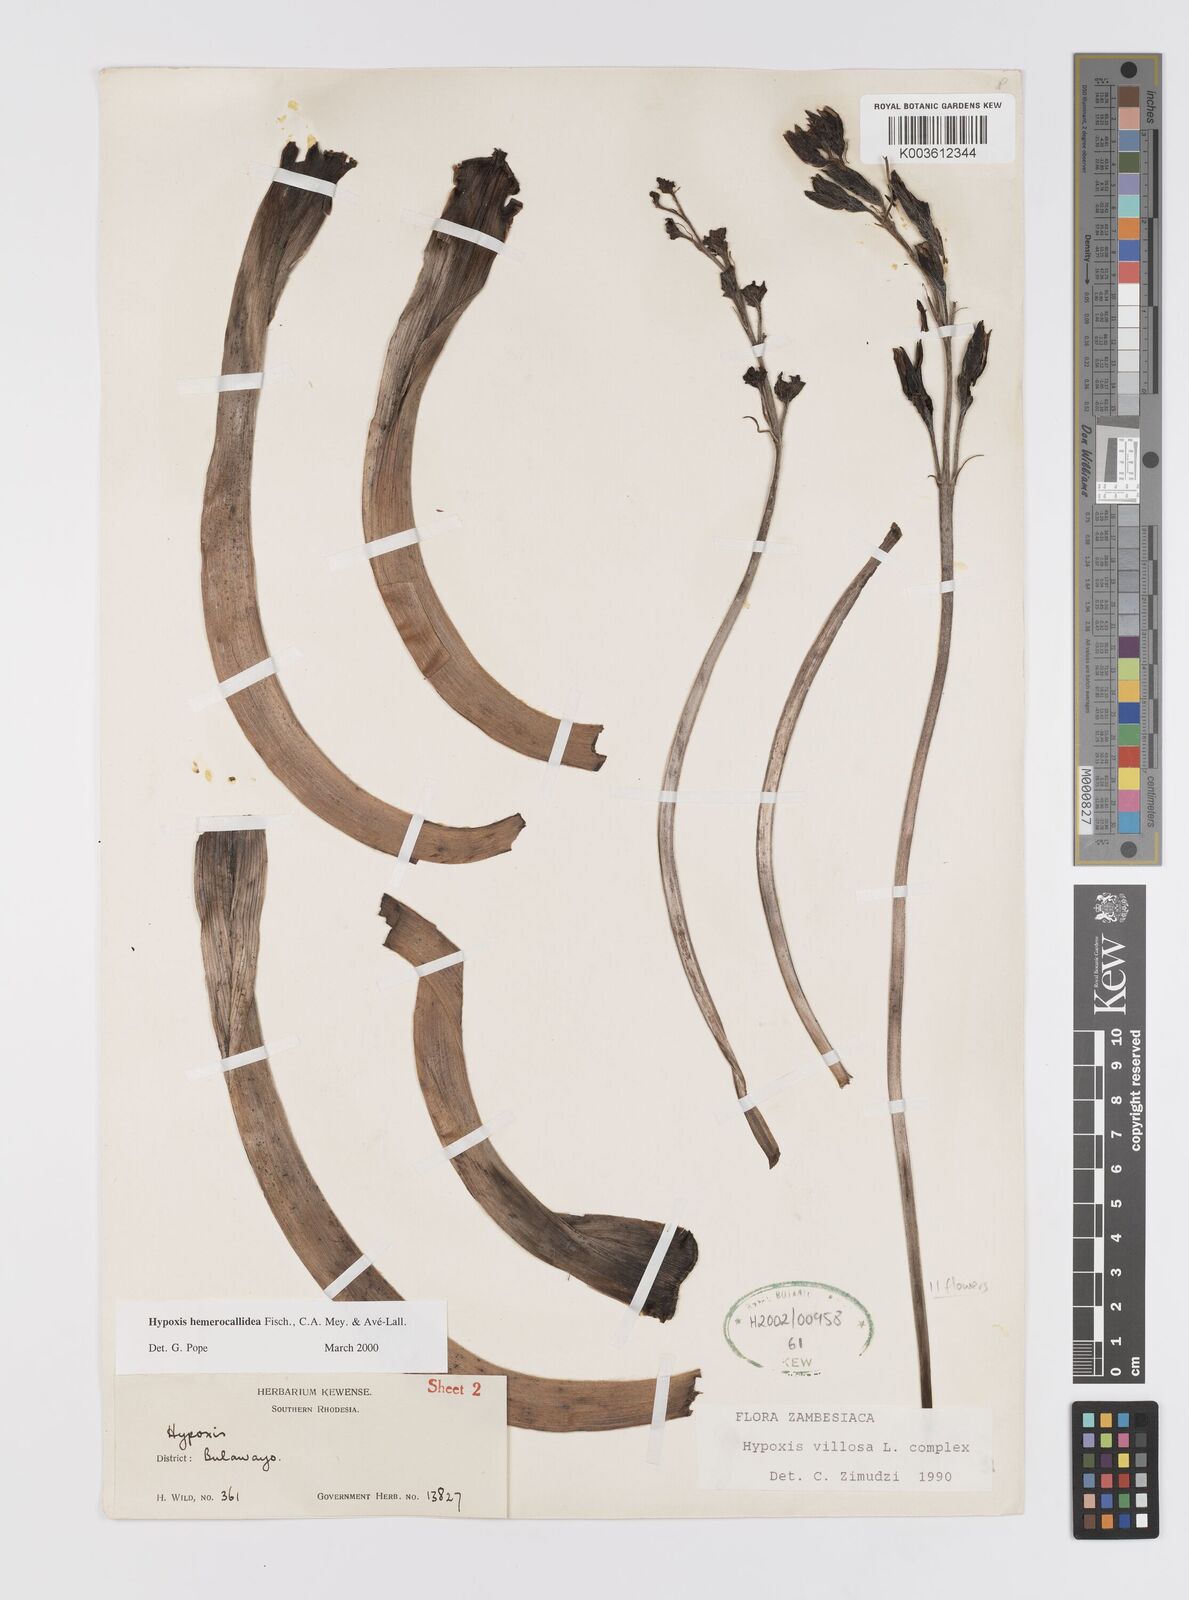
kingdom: Plantae
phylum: Tracheophyta
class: Liliopsida
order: Asparagales
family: Hypoxidaceae
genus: Hypoxis
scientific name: Hypoxis hemerocallidea
